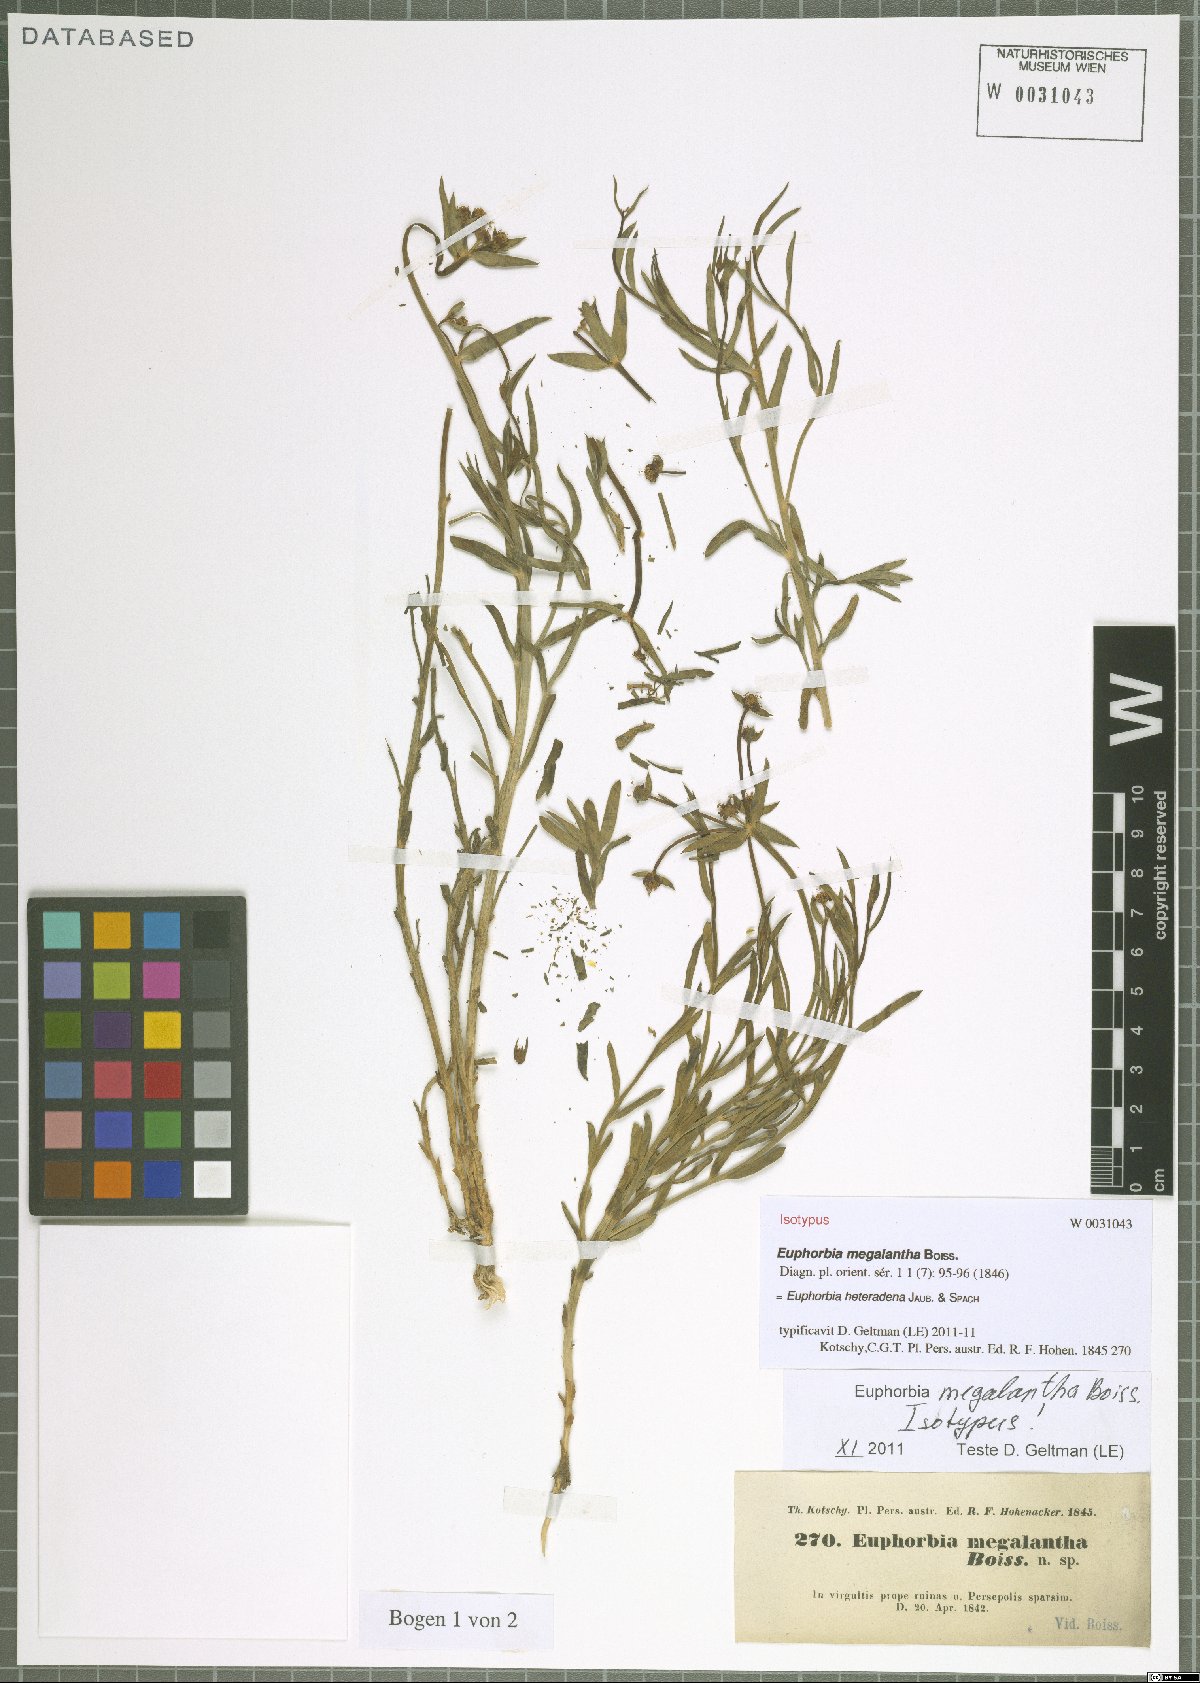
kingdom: Plantae
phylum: Tracheophyta
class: Magnoliopsida
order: Malpighiales
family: Euphorbiaceae
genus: Euphorbia
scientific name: Euphorbia heteradena
